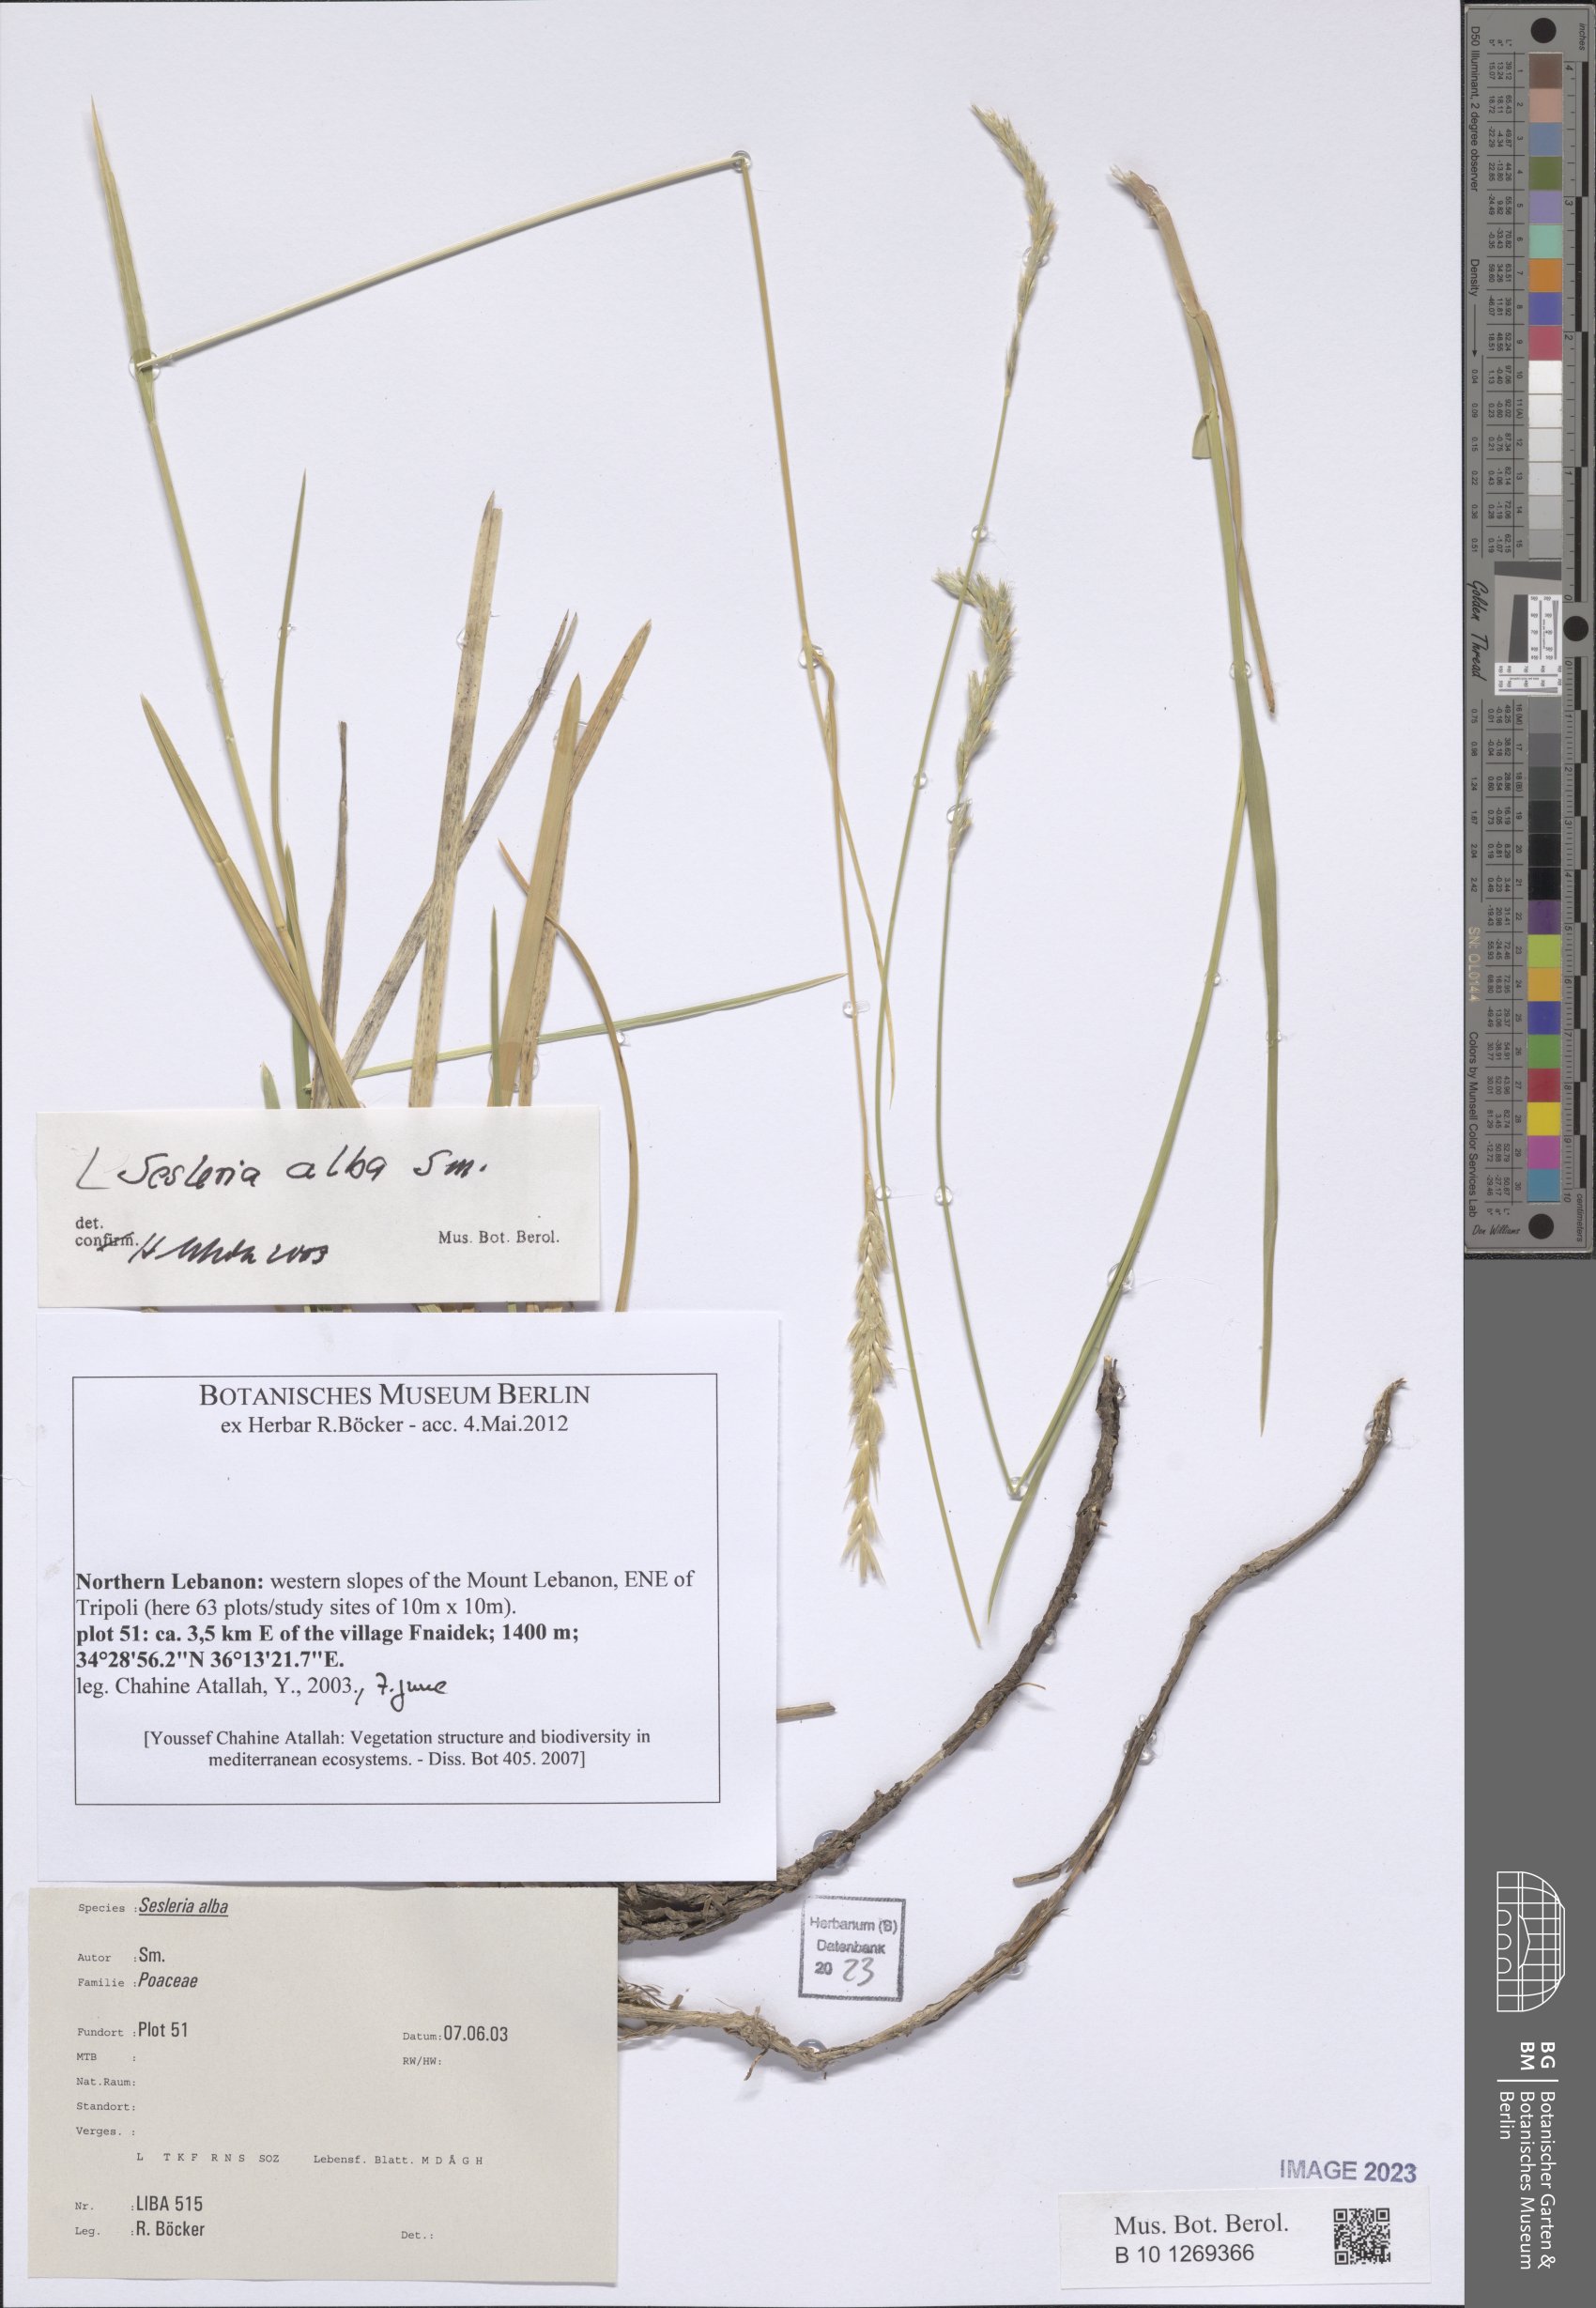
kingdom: Plantae
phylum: Tracheophyta
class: Liliopsida
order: Poales
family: Poaceae
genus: Sesleria
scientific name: Sesleria alba
